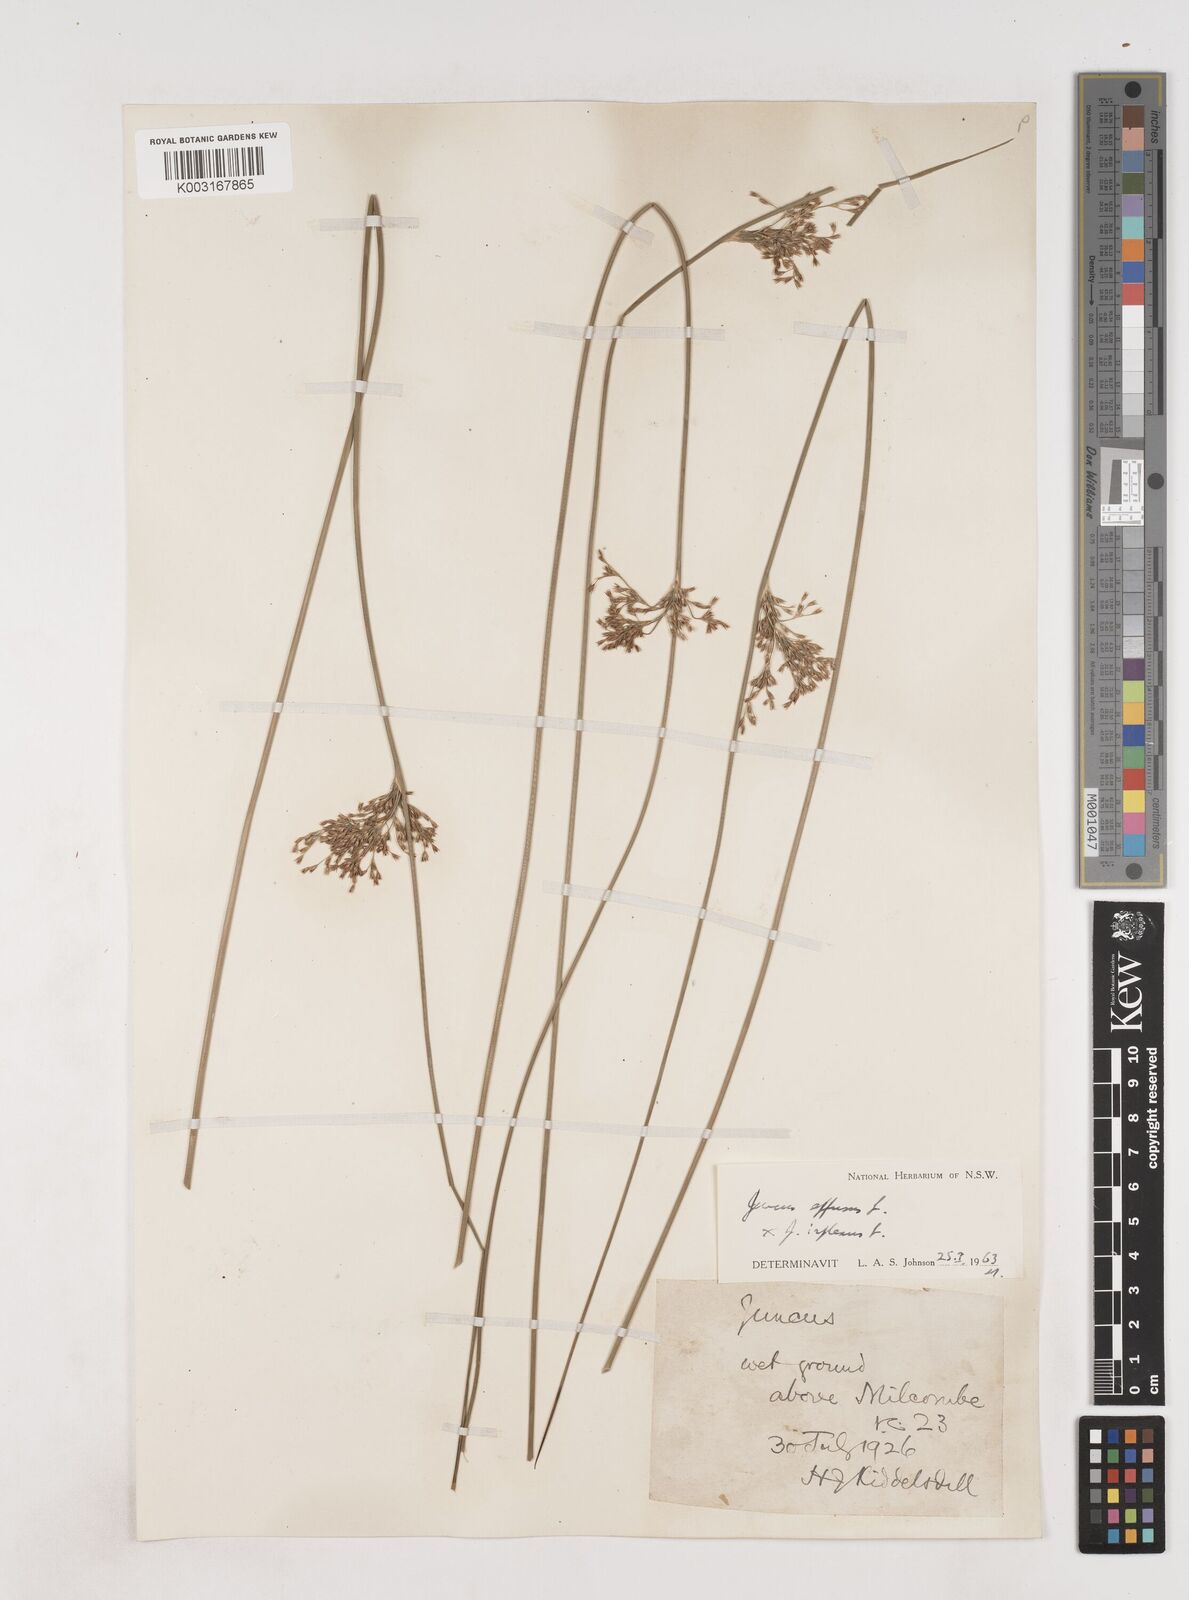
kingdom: Plantae
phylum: Tracheophyta
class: Liliopsida
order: Poales
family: Juncaceae
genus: Juncus
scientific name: Juncus effusus
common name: Soft rush
